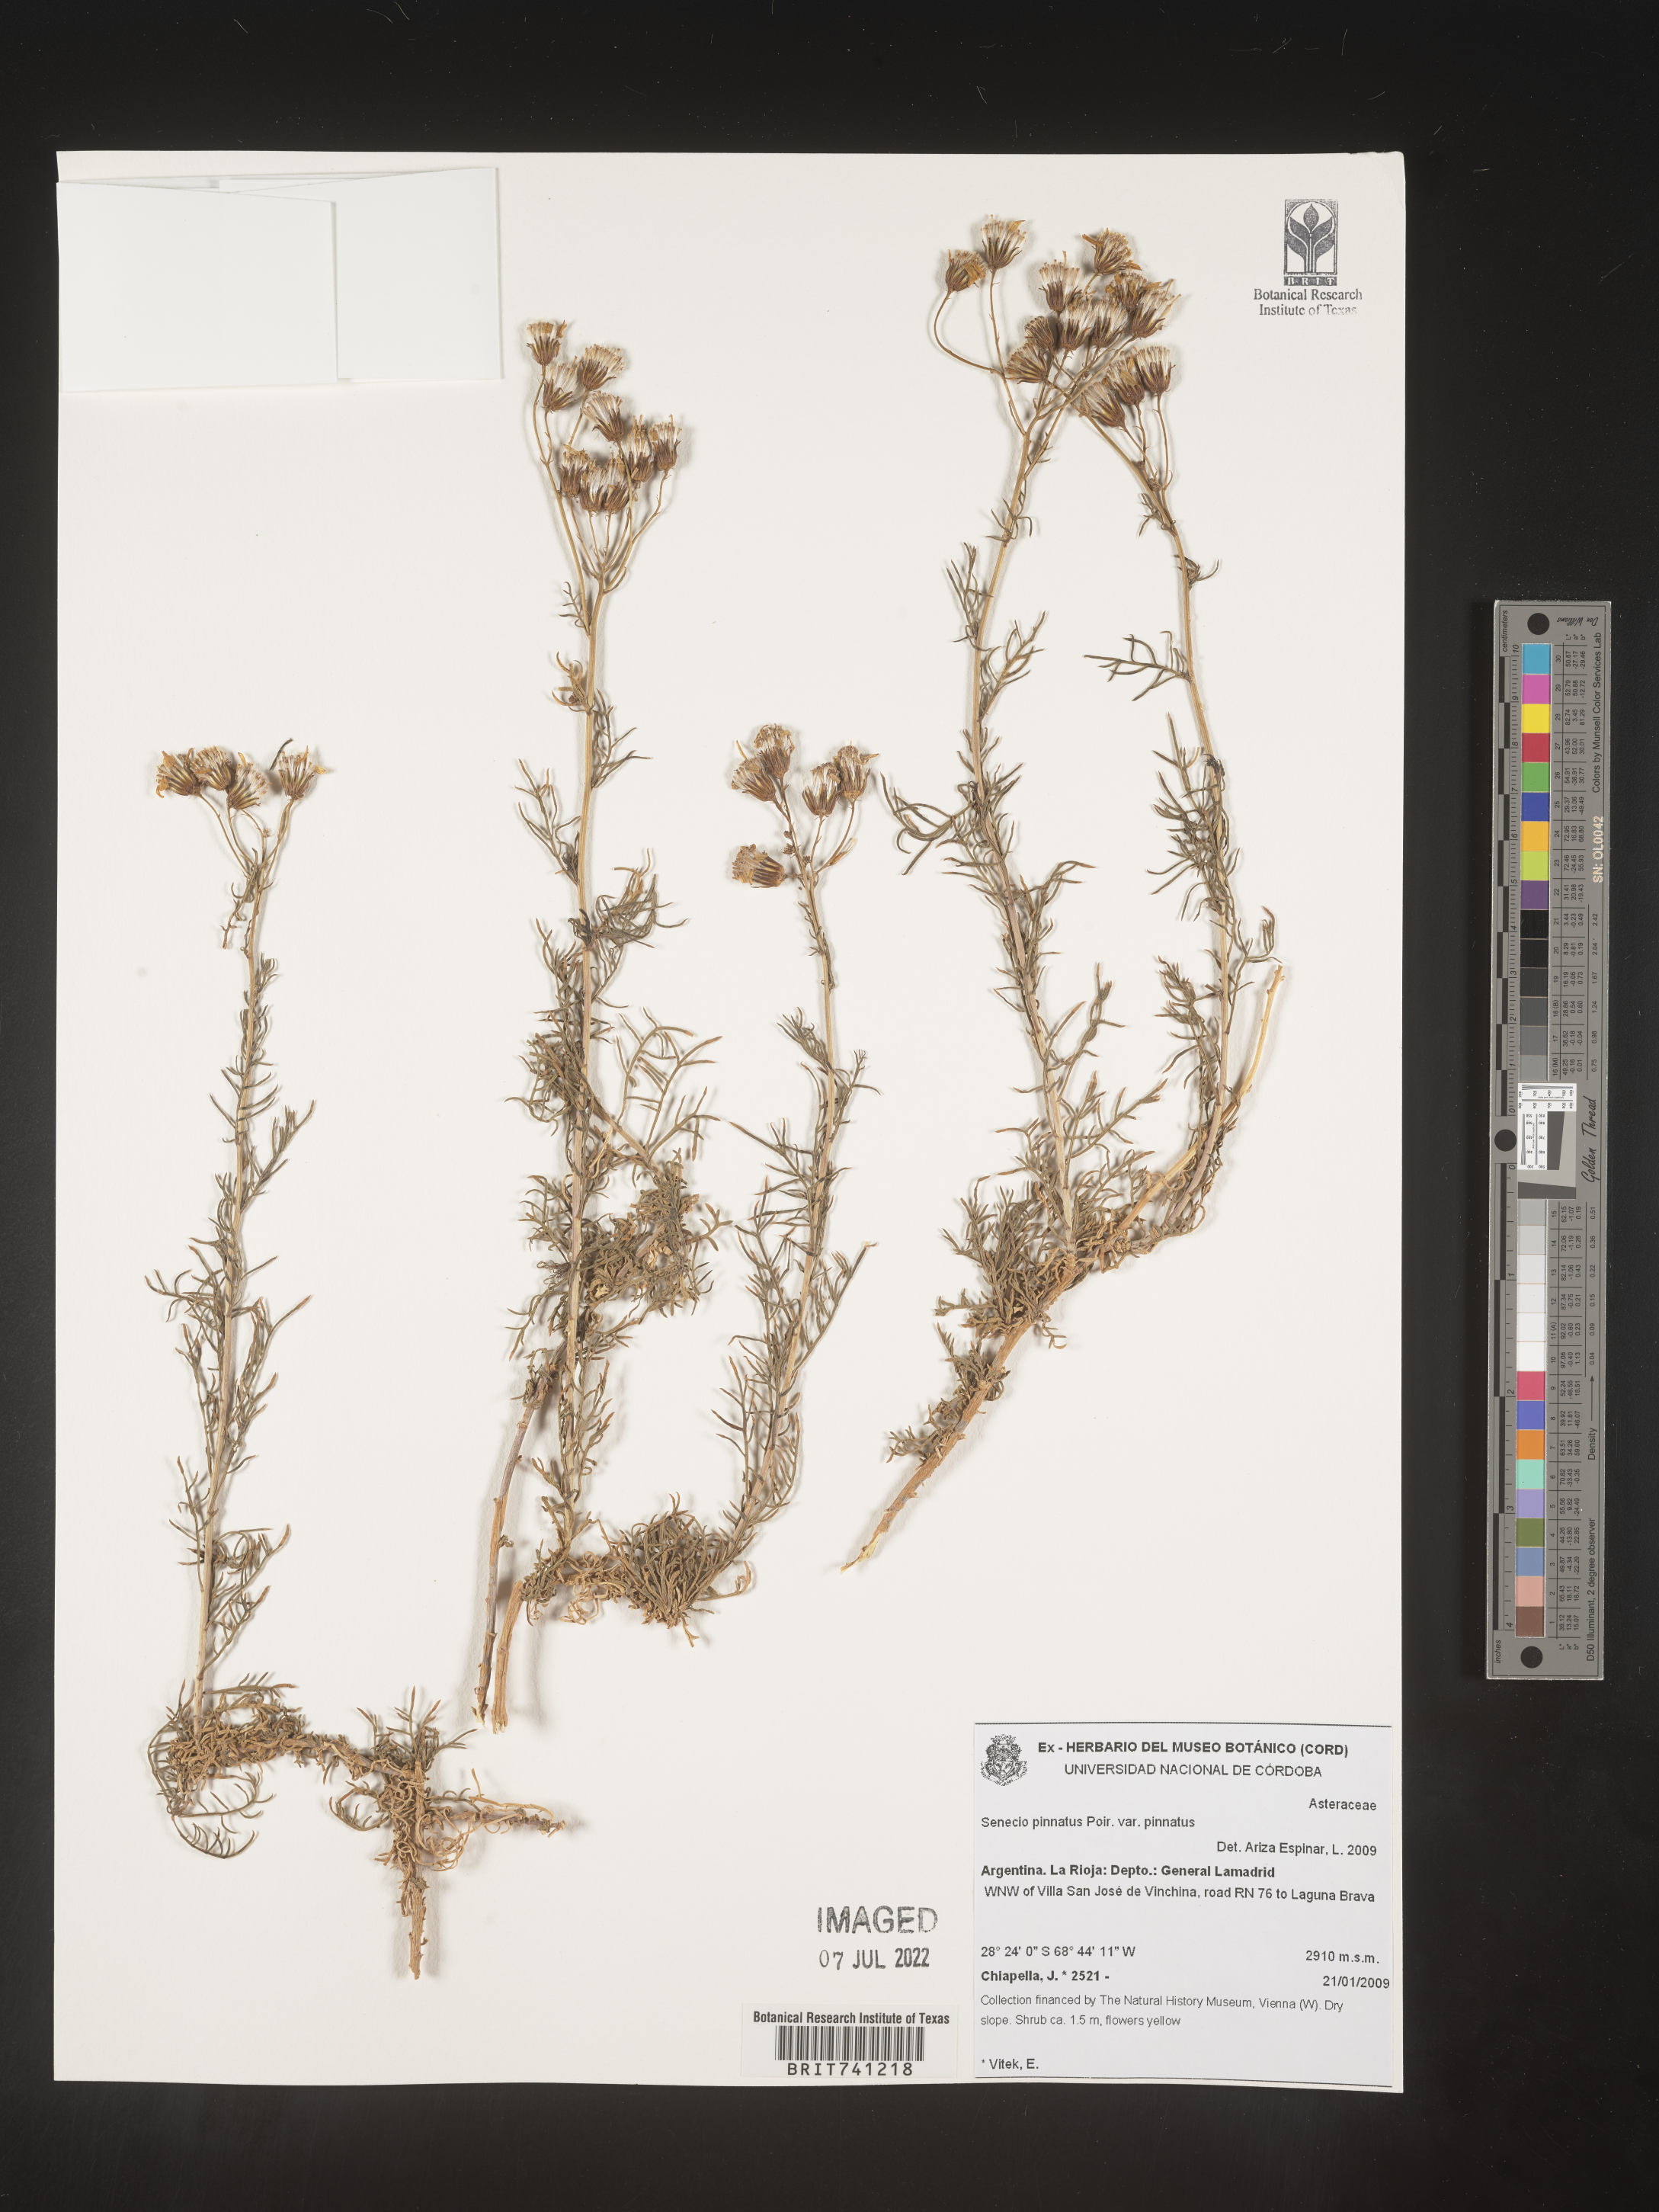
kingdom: Plantae
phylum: Tracheophyta
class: Magnoliopsida
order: Asterales
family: Asteraceae
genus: Senecio
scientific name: Senecio
